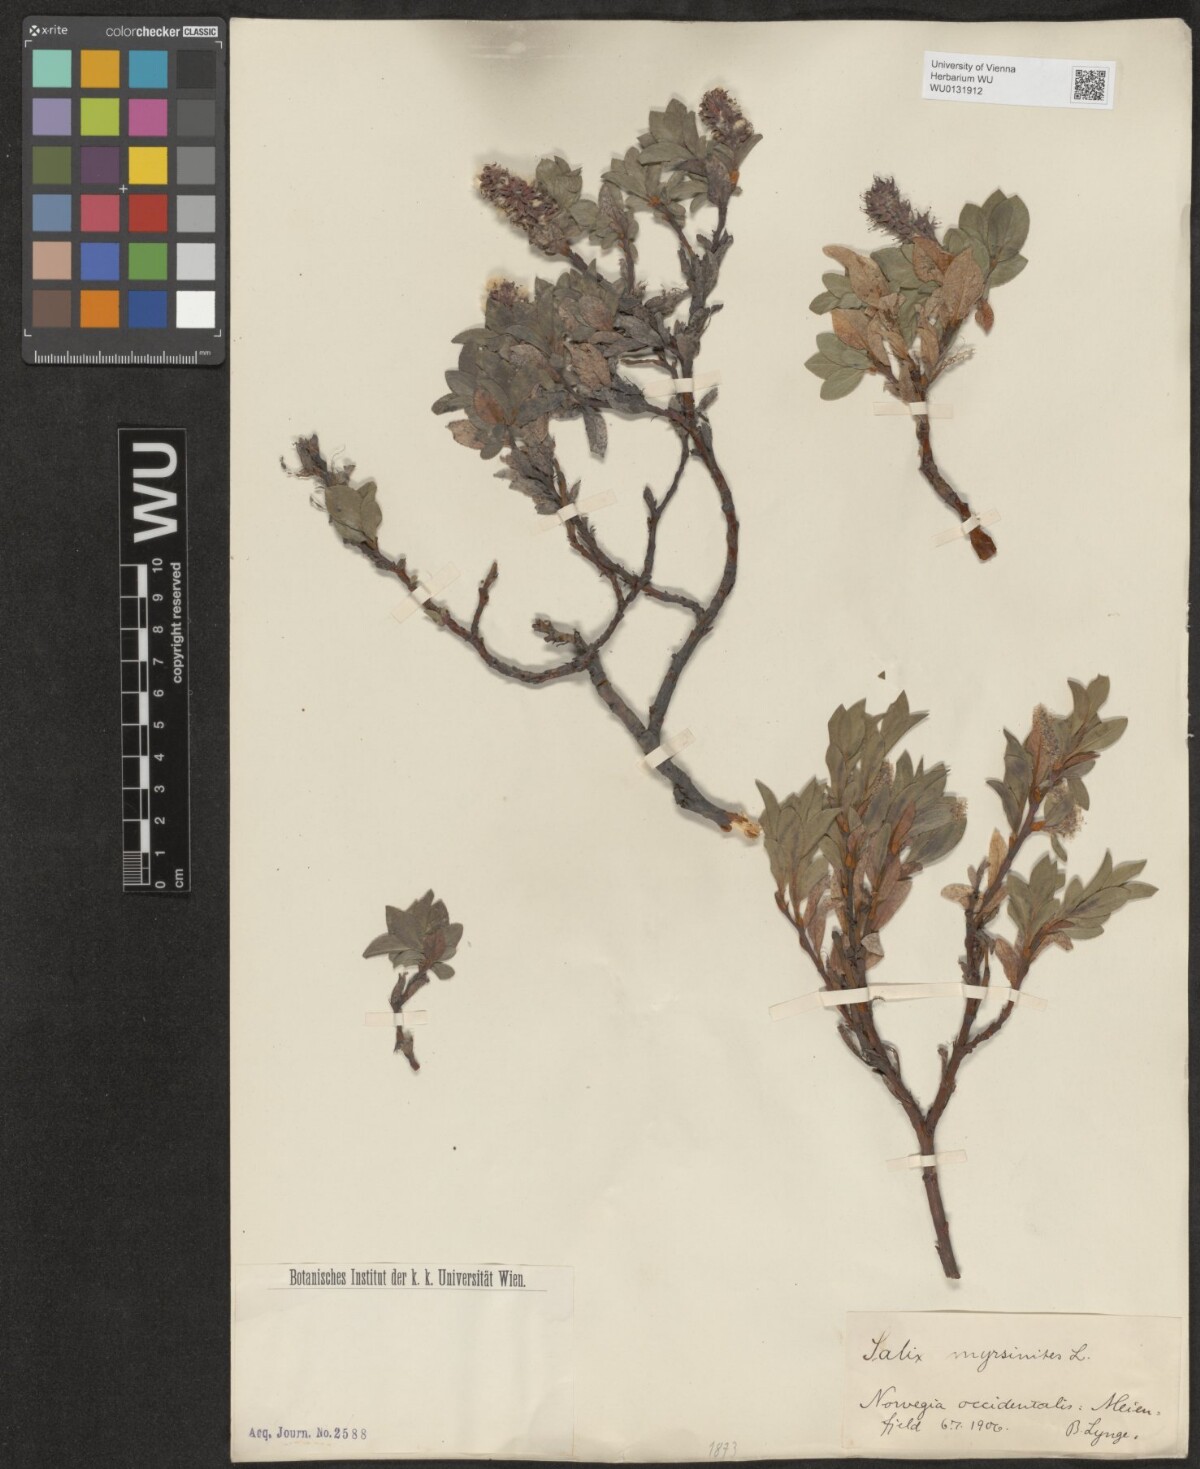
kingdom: Plantae
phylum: Tracheophyta
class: Magnoliopsida
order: Malpighiales
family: Salicaceae
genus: Salix
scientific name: Salix myrsinites
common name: Myrtle willow
